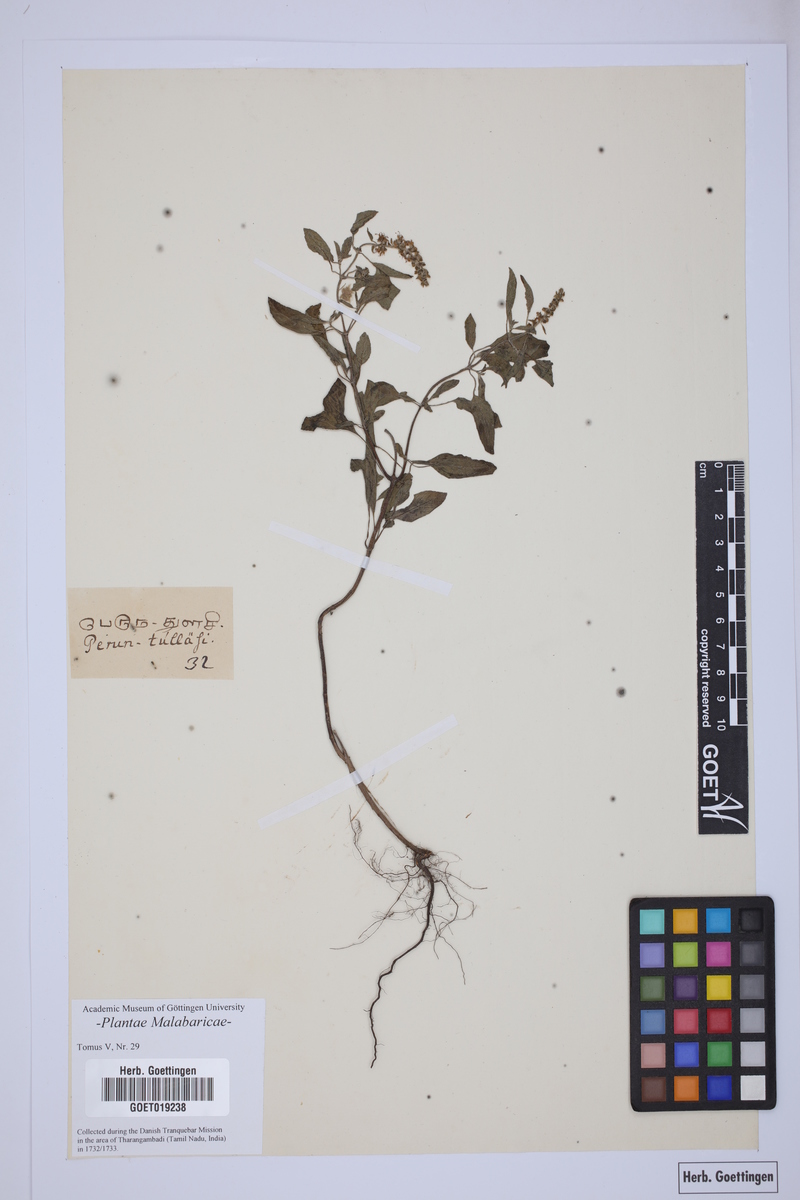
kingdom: Plantae
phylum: Tracheophyta
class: Magnoliopsida
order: Lamiales
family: Lamiaceae
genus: Ocimum
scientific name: Ocimum
